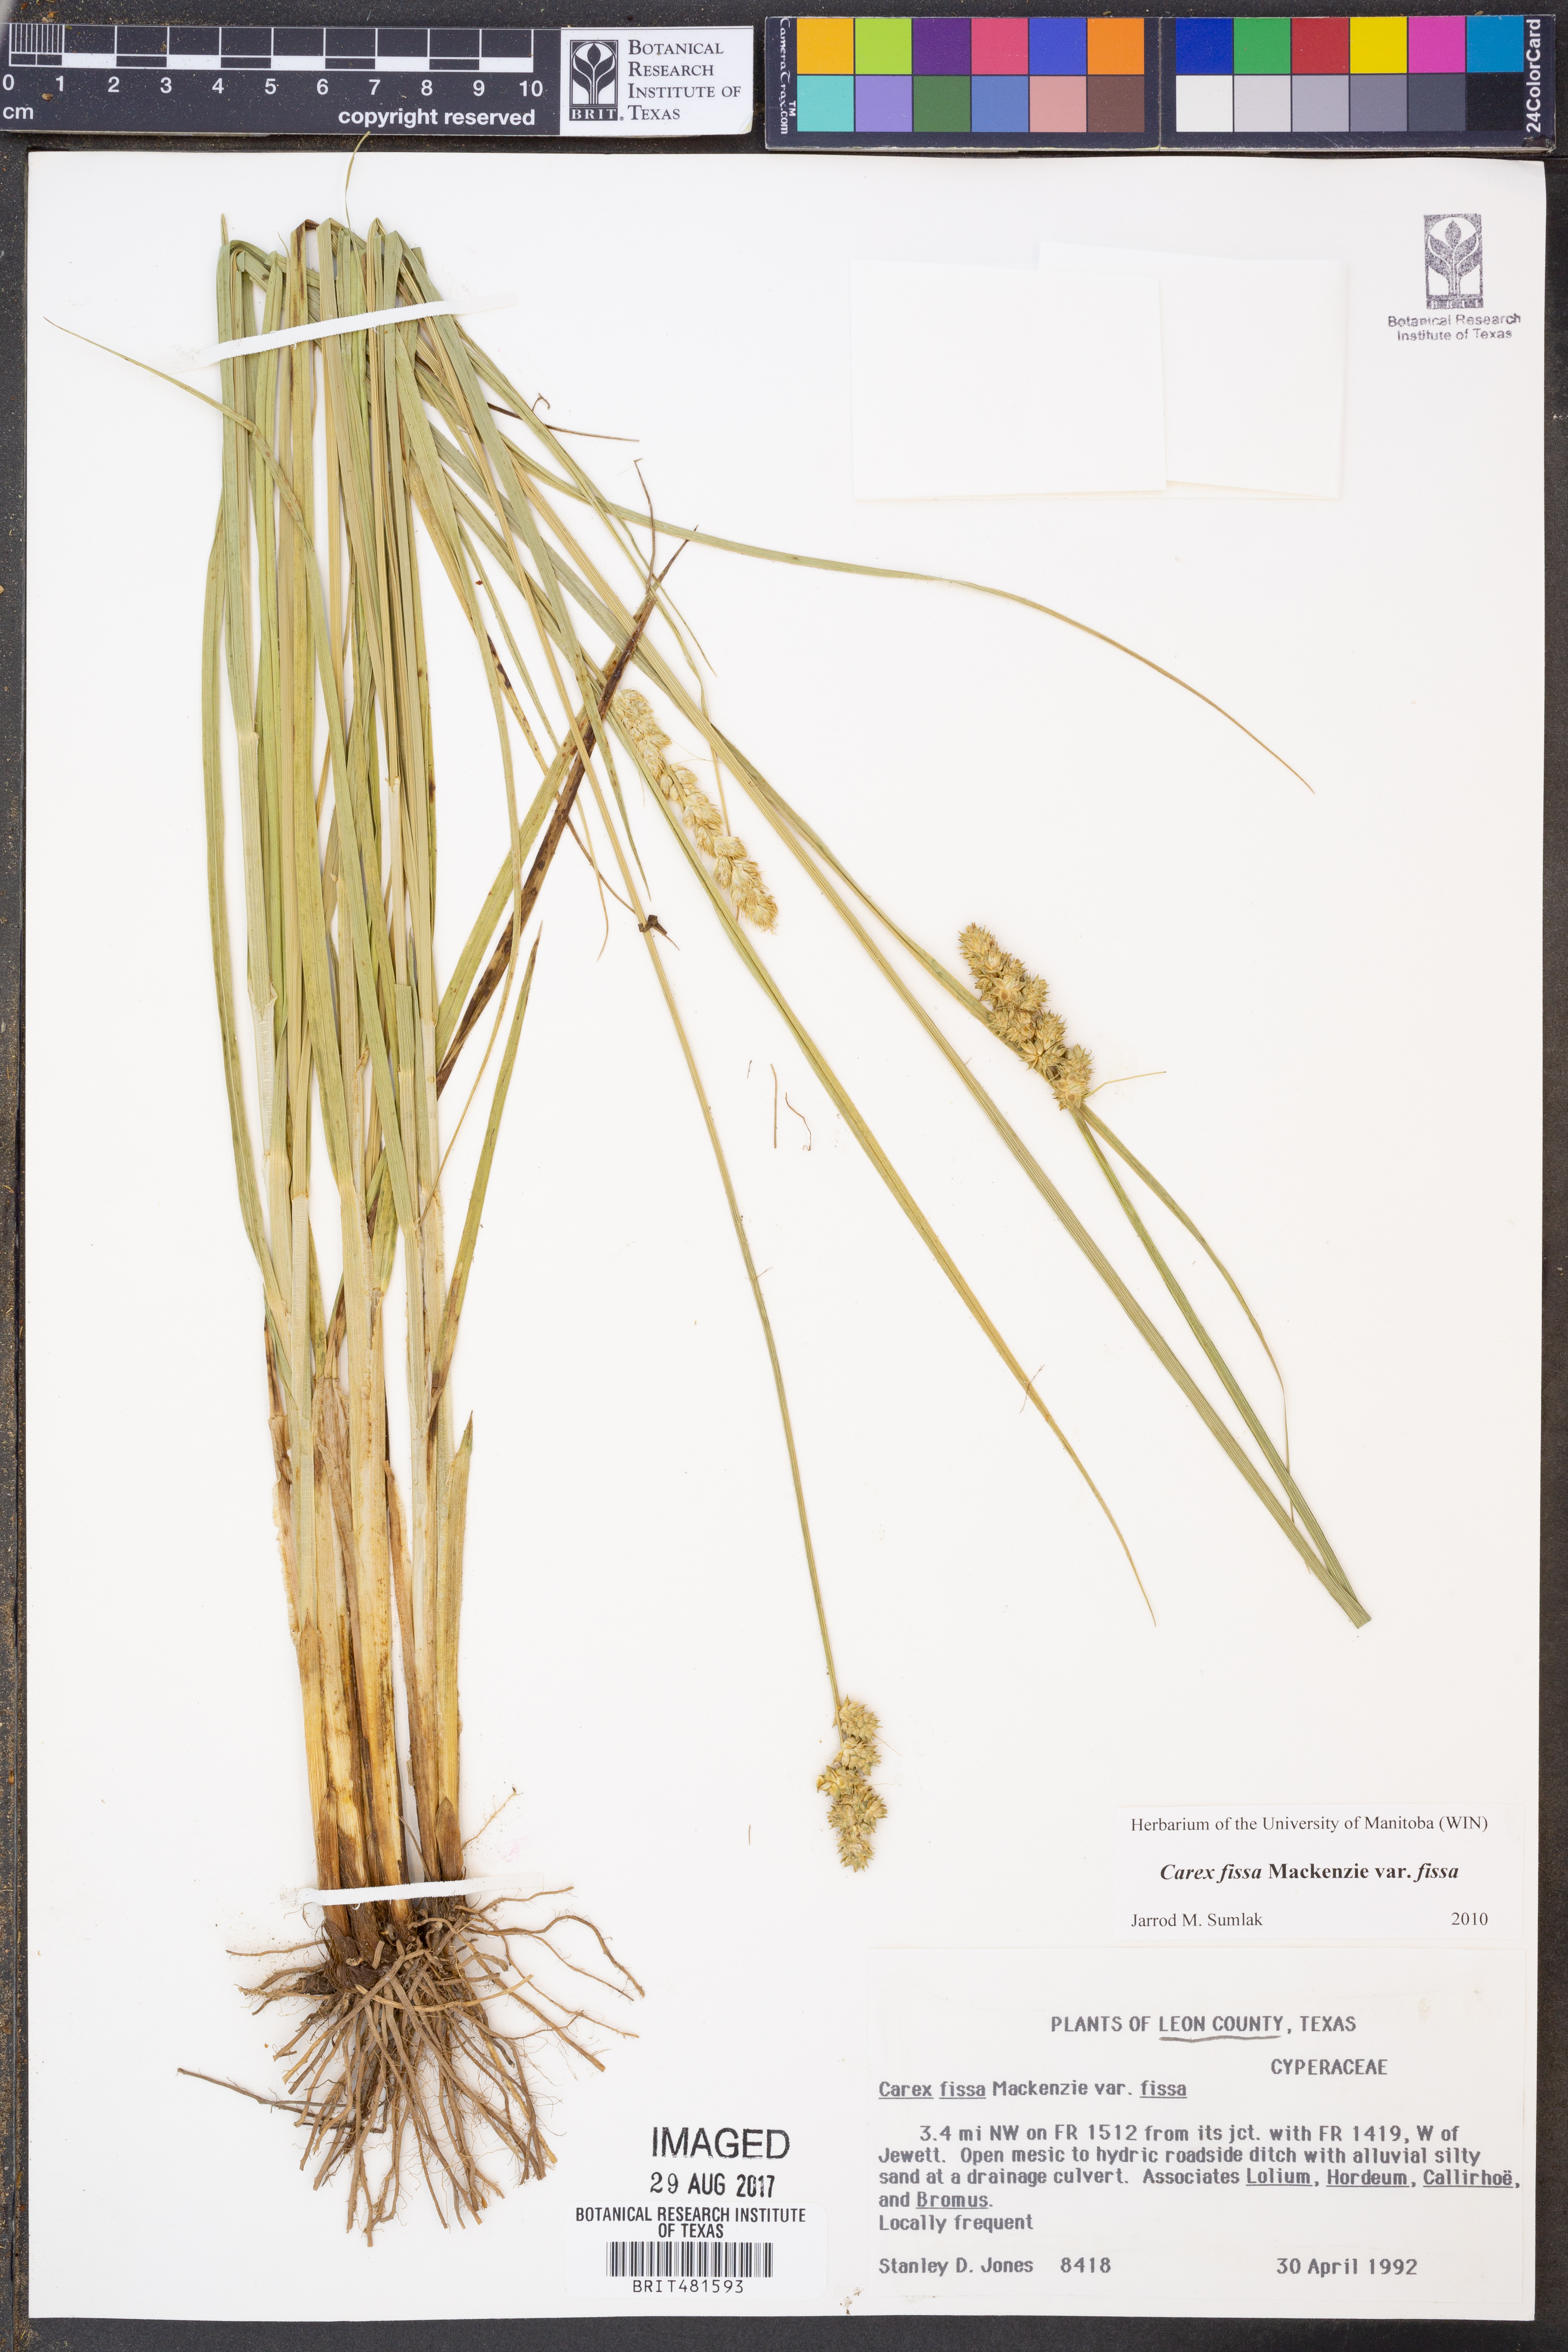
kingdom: Plantae
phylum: Tracheophyta
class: Liliopsida
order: Poales
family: Cyperaceae
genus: Carex
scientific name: Carex fissa
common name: Hammock sedge
